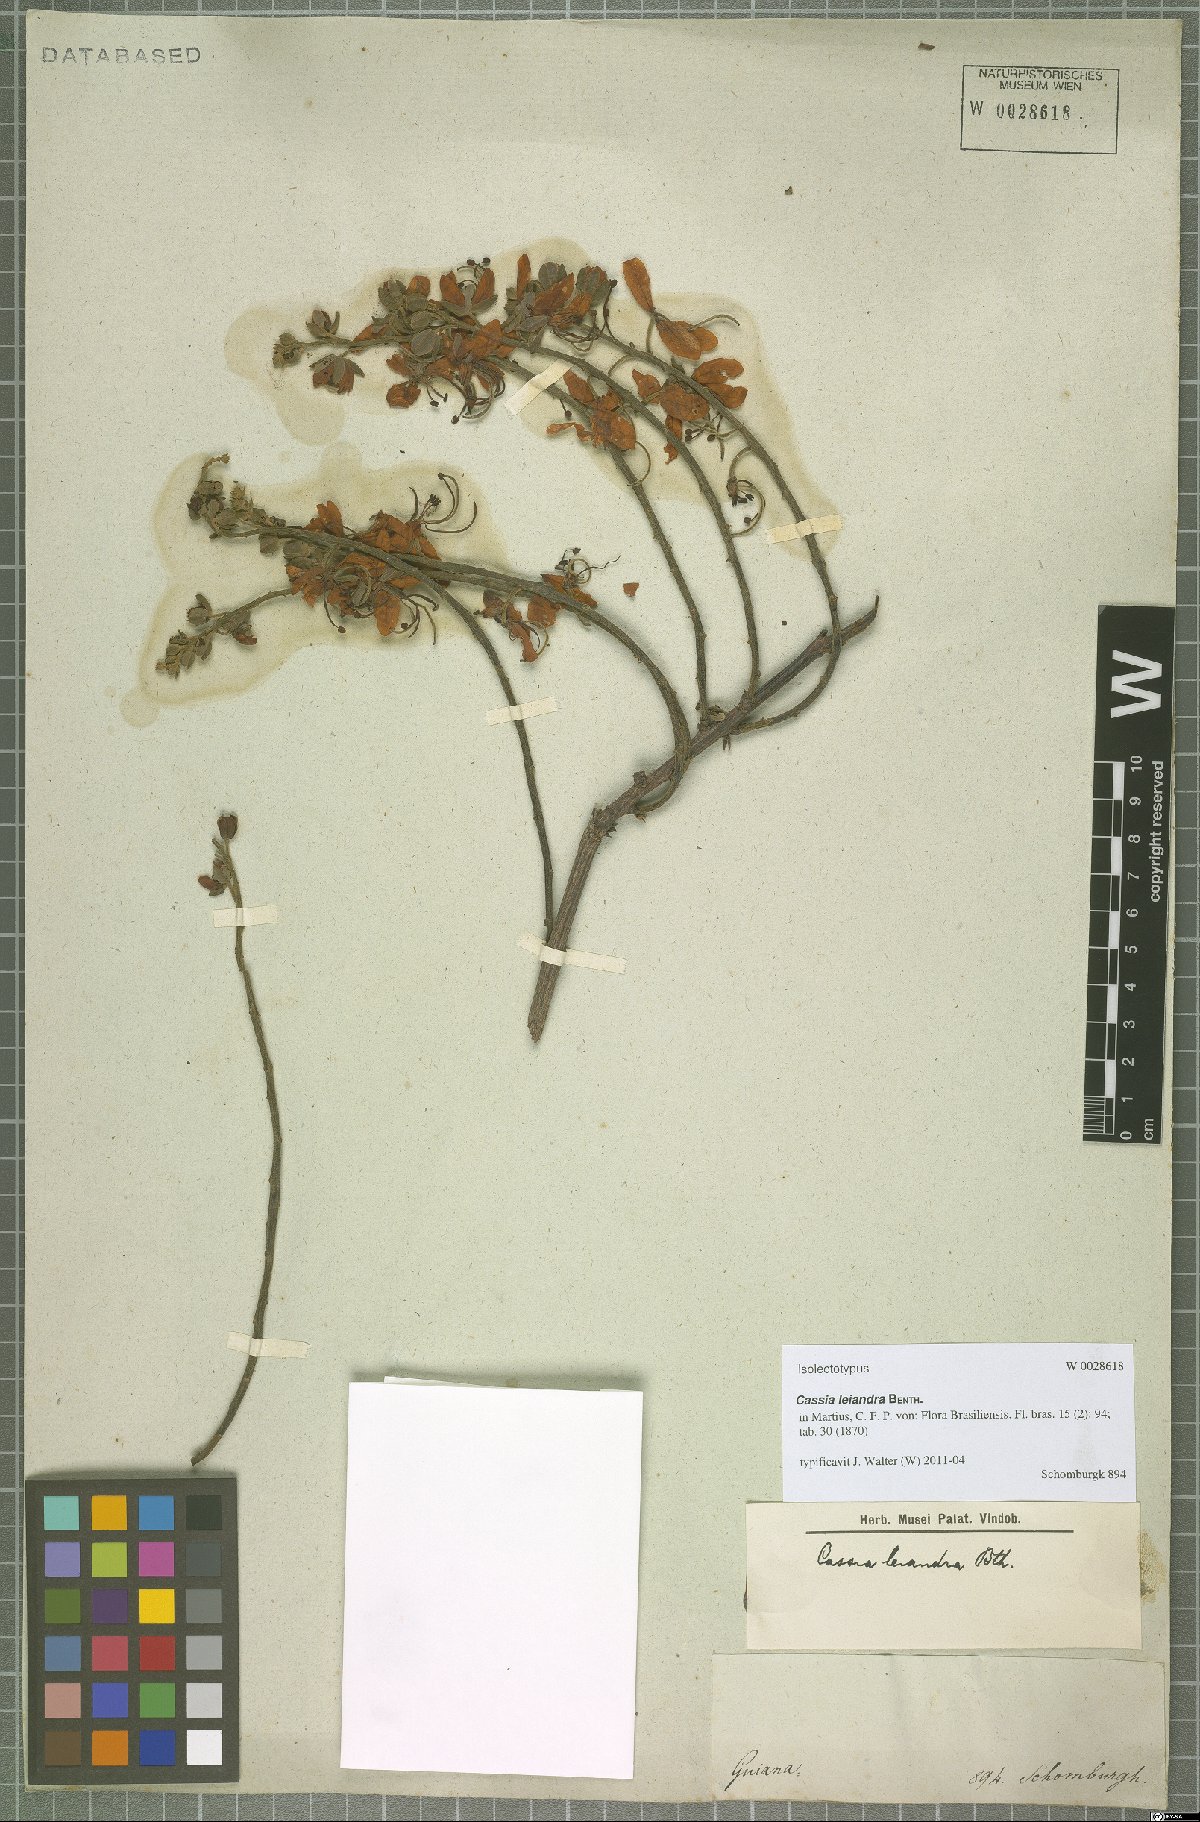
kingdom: Plantae
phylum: Tracheophyta
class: Magnoliopsida
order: Fabales
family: Fabaceae
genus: Cassia
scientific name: Cassia leiandra
